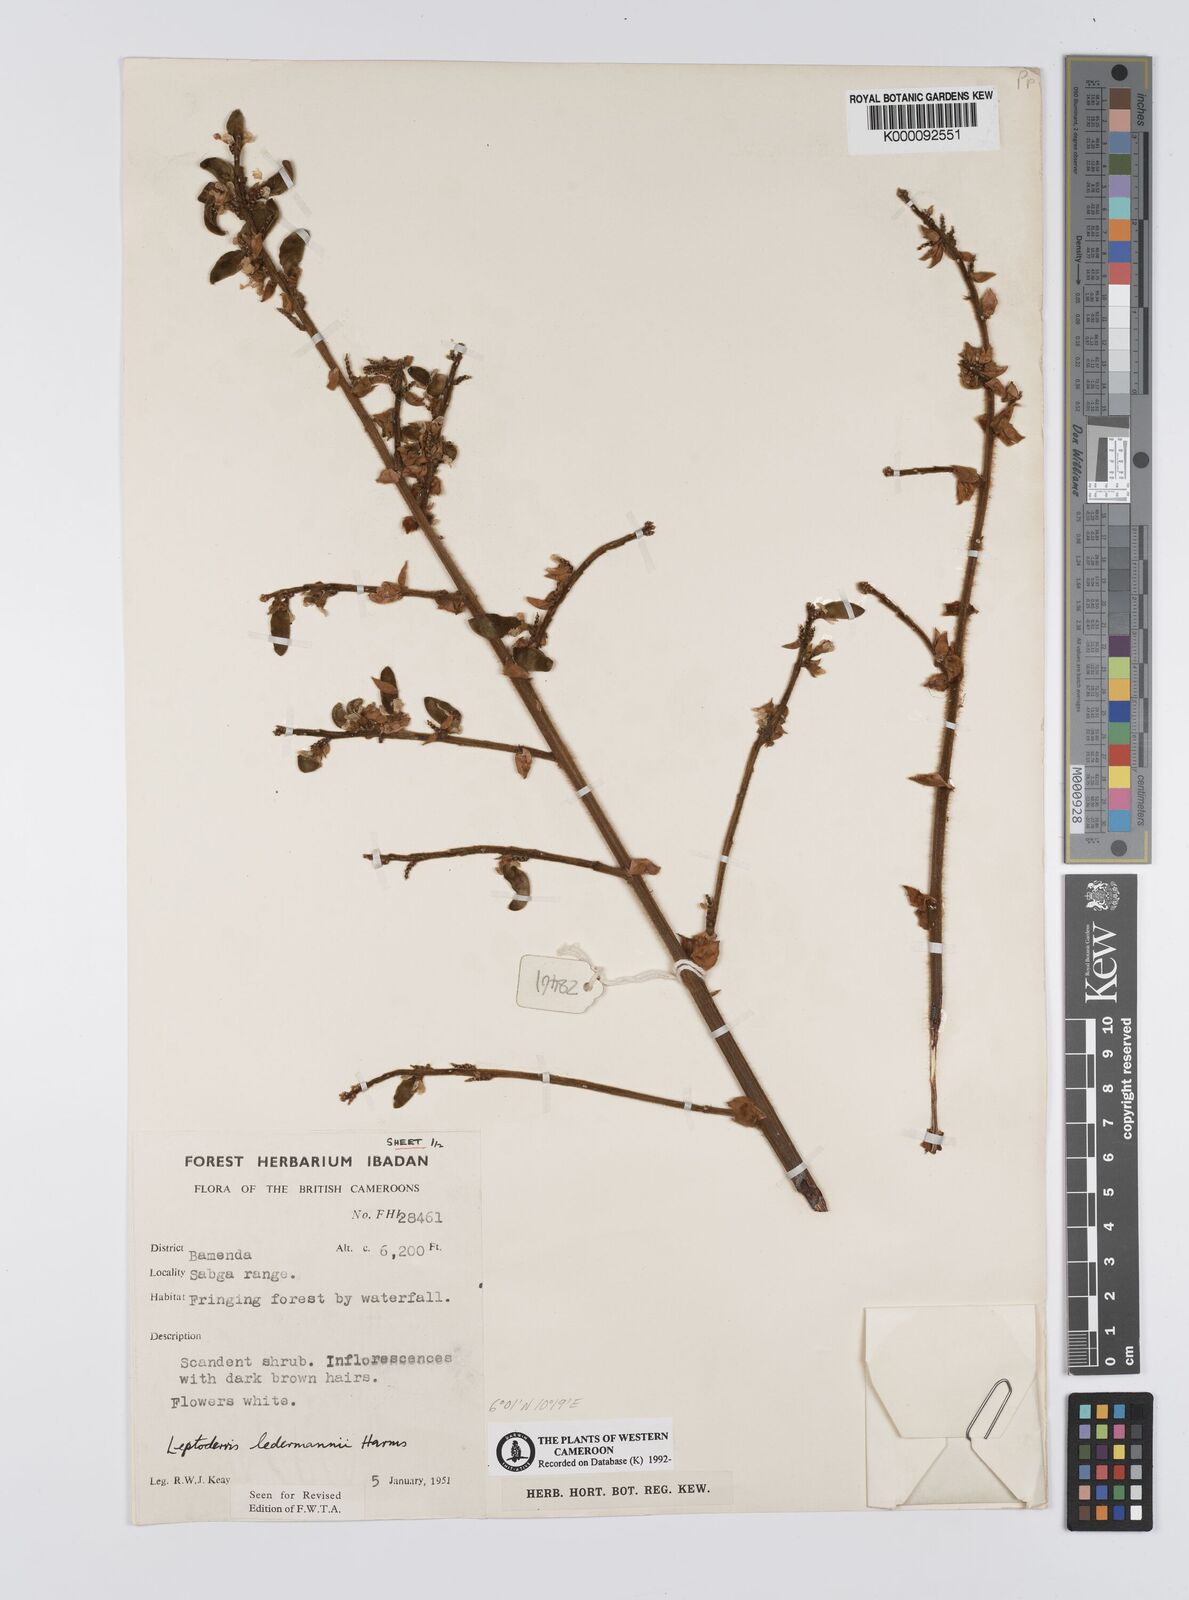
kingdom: Plantae
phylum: Tracheophyta
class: Magnoliopsida
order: Fabales
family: Fabaceae
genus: Leptoderris
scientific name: Leptoderris ledermannii
